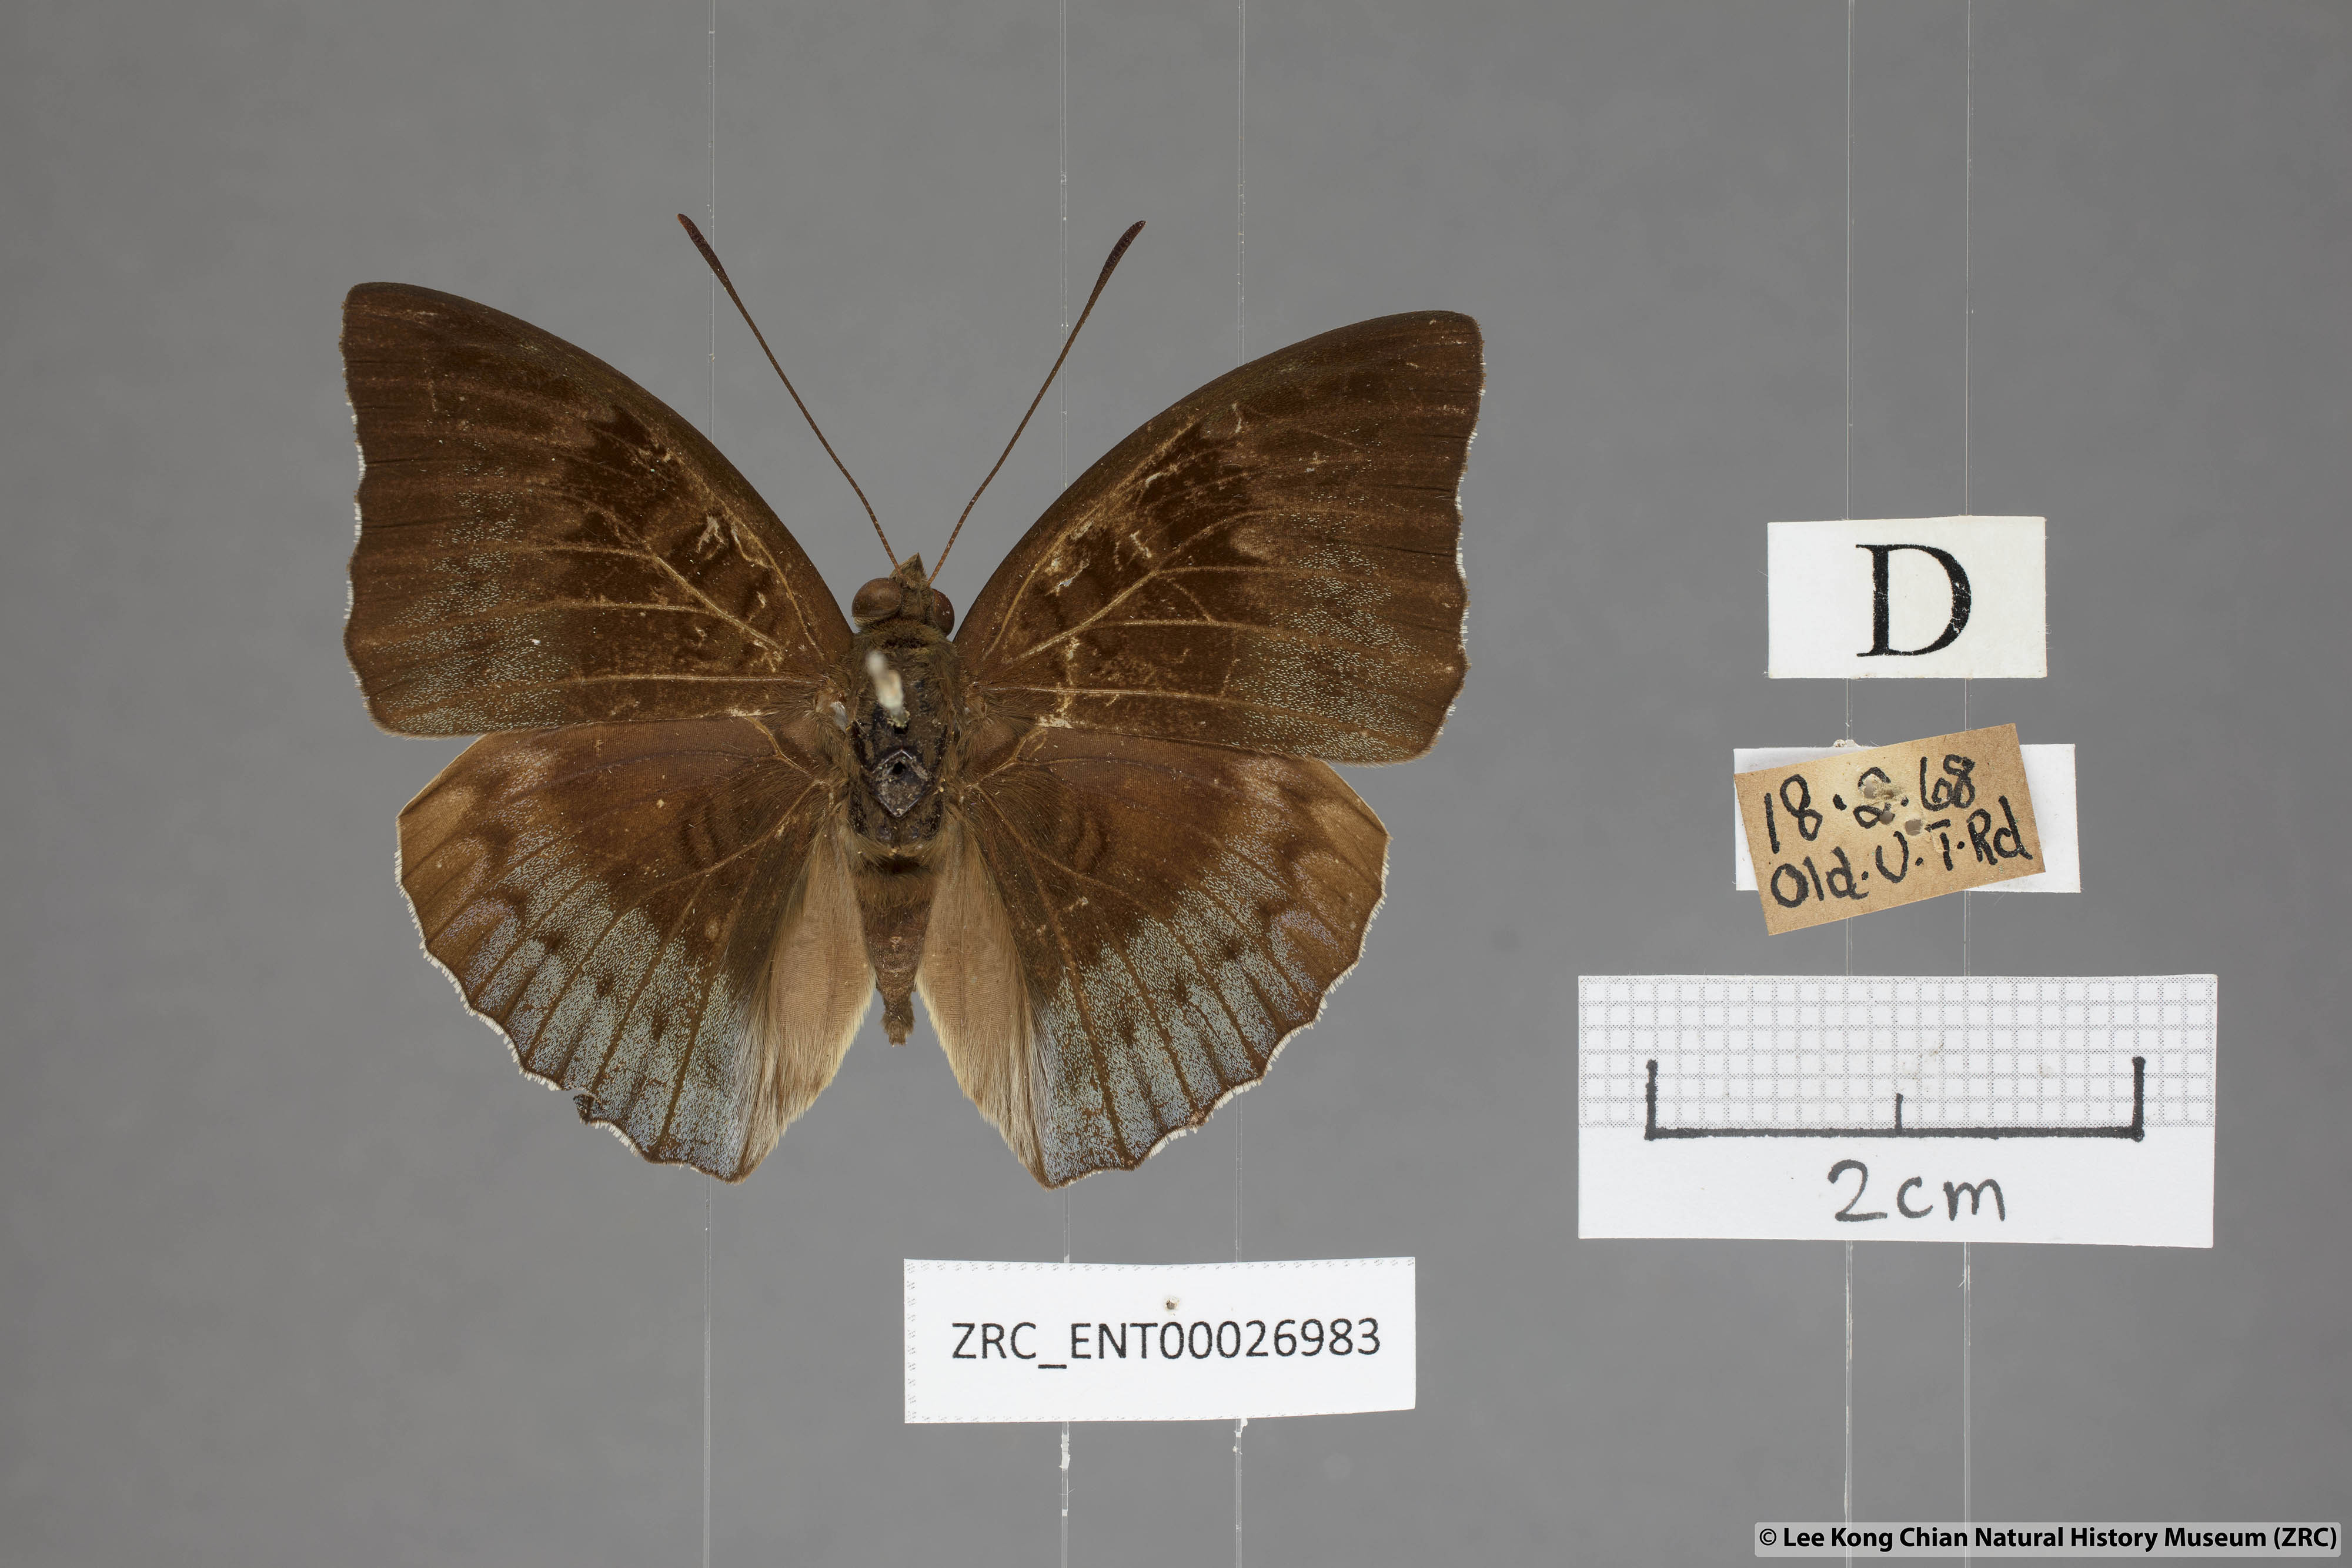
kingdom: Animalia
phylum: Arthropoda
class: Insecta
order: Lepidoptera
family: Nymphalidae
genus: Euthalia
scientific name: Euthalia monina
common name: Powdered baron
